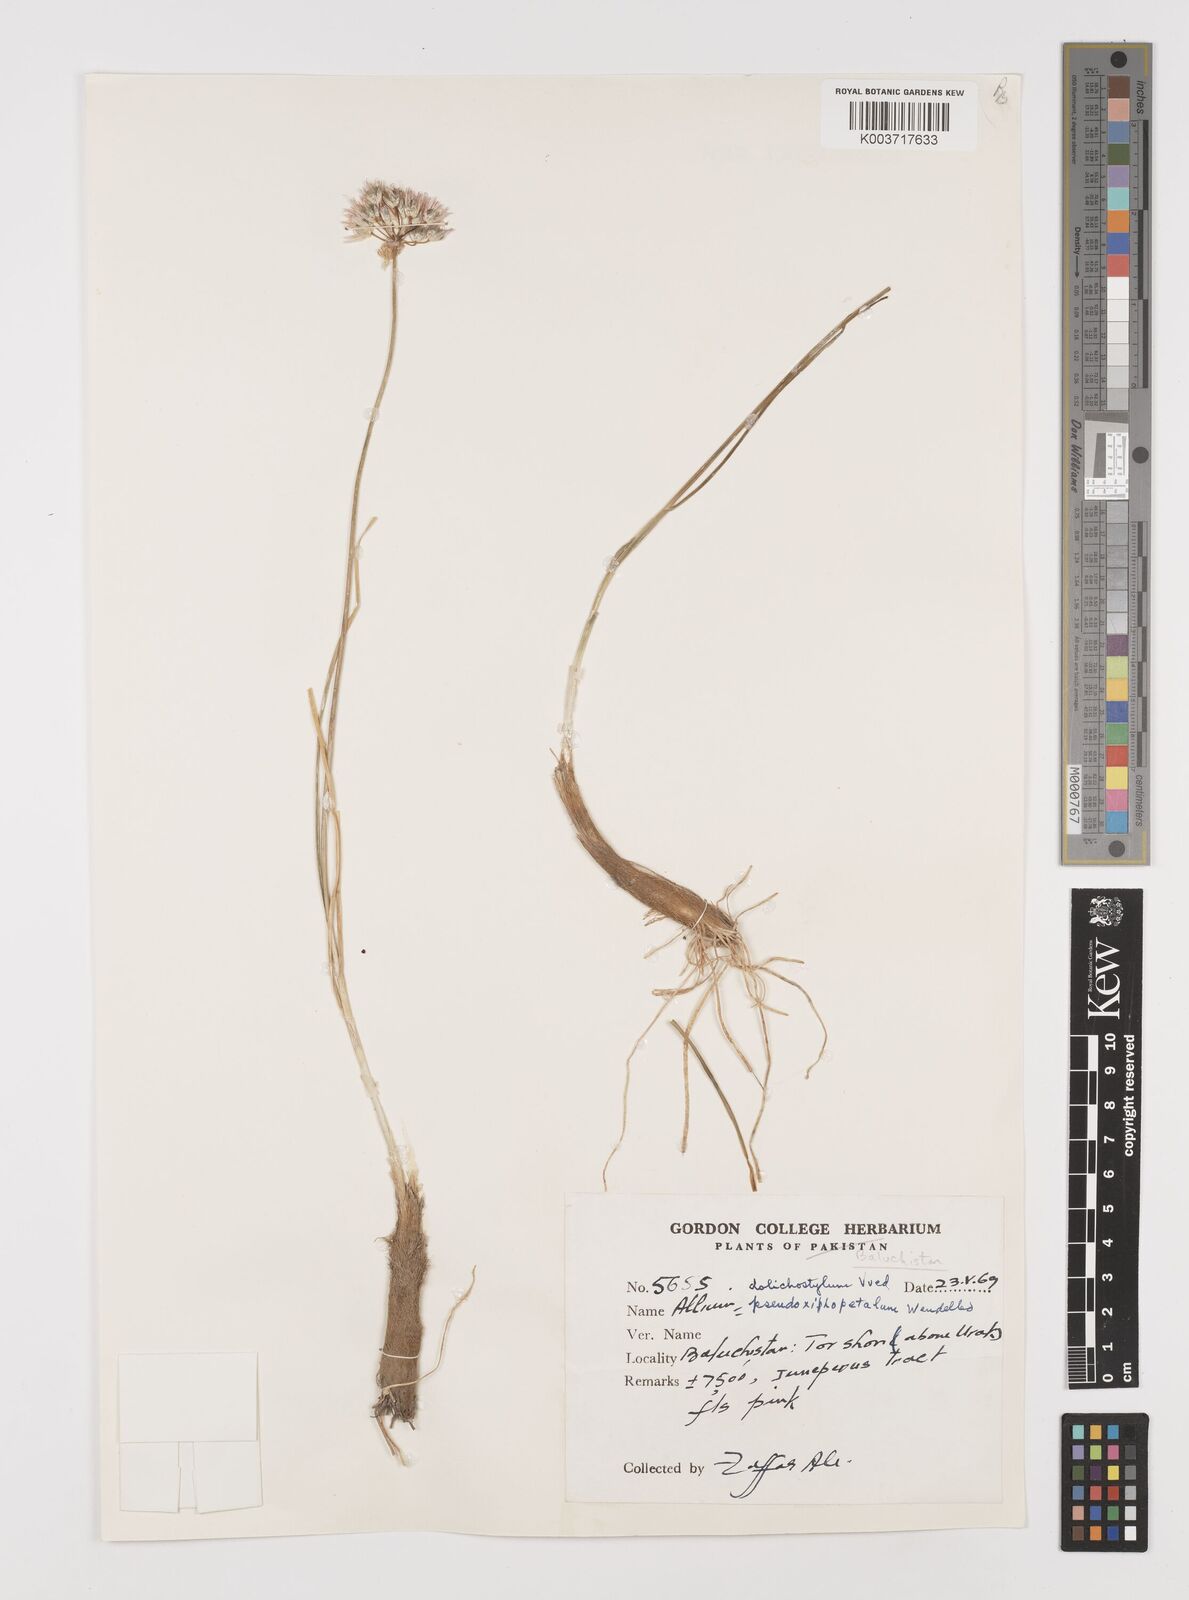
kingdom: Plantae
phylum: Tracheophyta
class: Liliopsida
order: Asparagales
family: Amaryllidaceae
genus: Allium
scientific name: Allium dolichostylum
